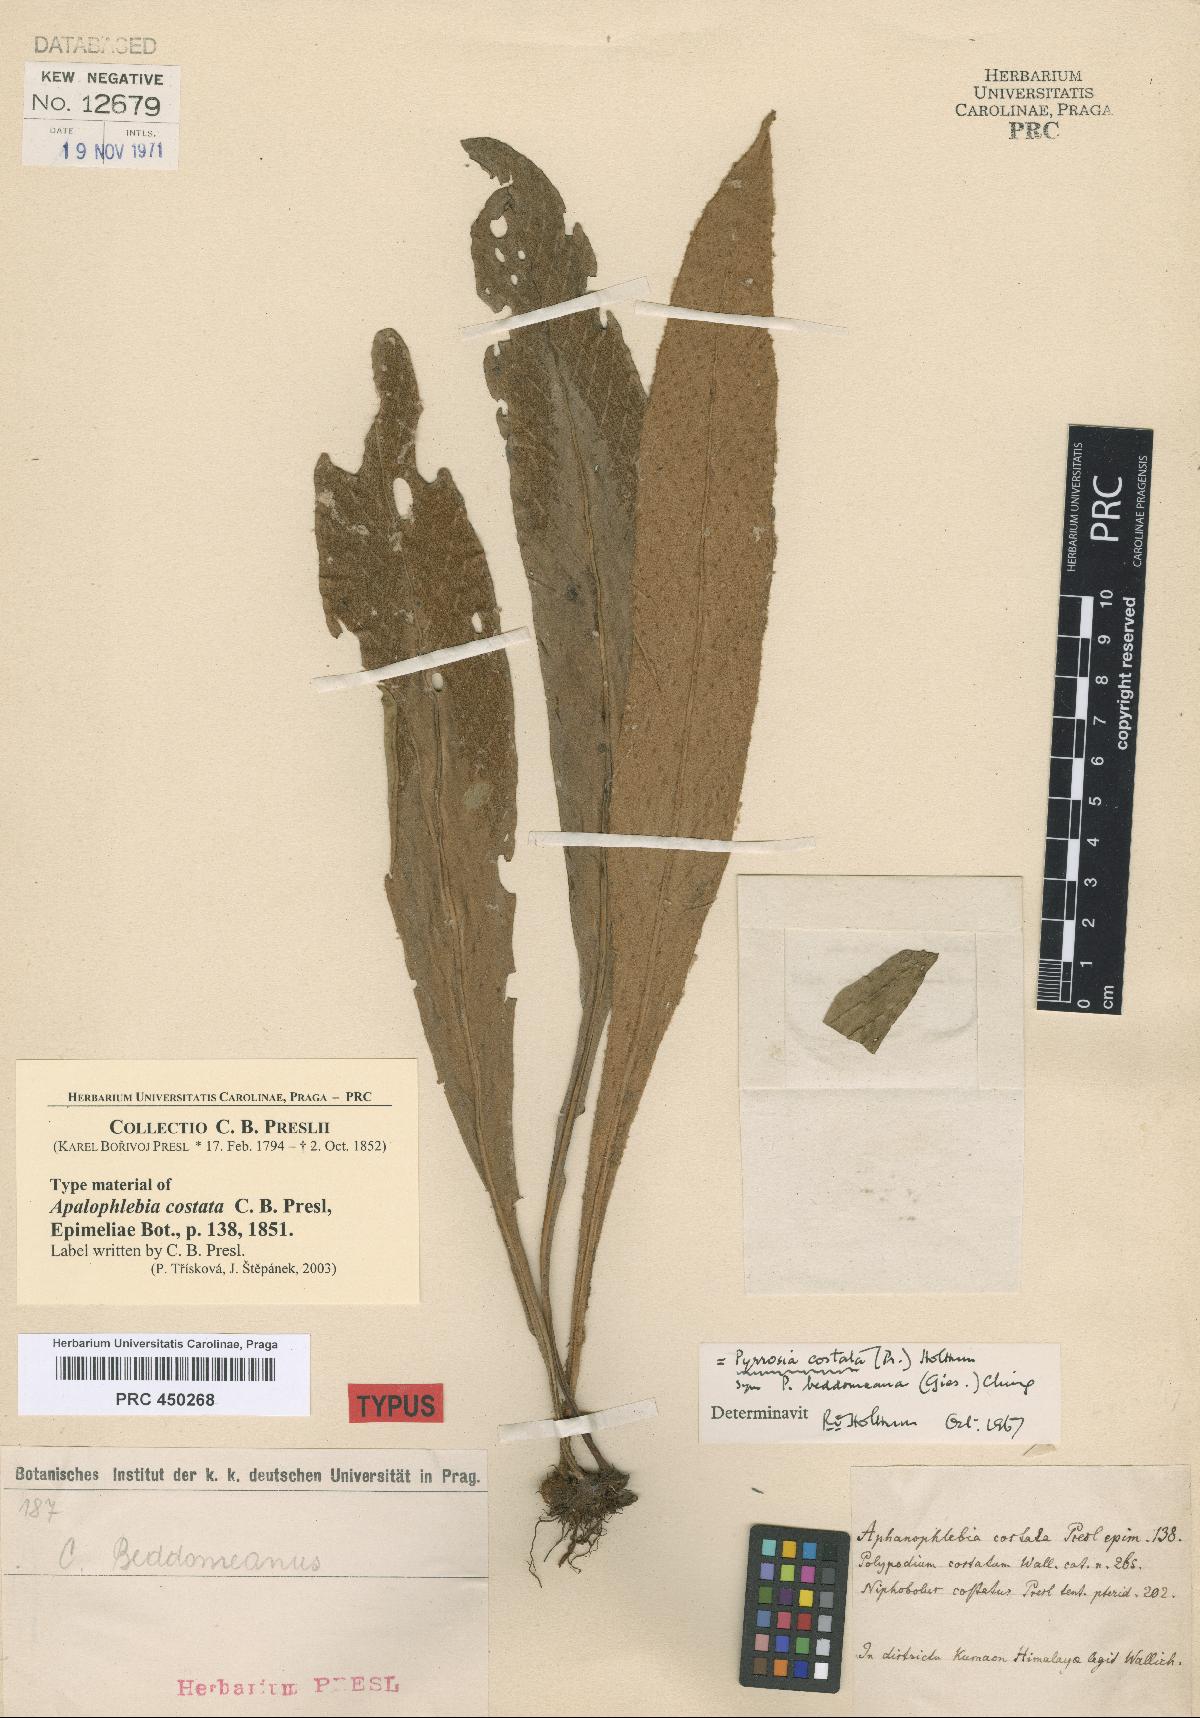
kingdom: Plantae
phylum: Tracheophyta
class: Polypodiopsida
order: Polypodiales
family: Polypodiaceae
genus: Pyrrosia
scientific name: Pyrrosia costata
